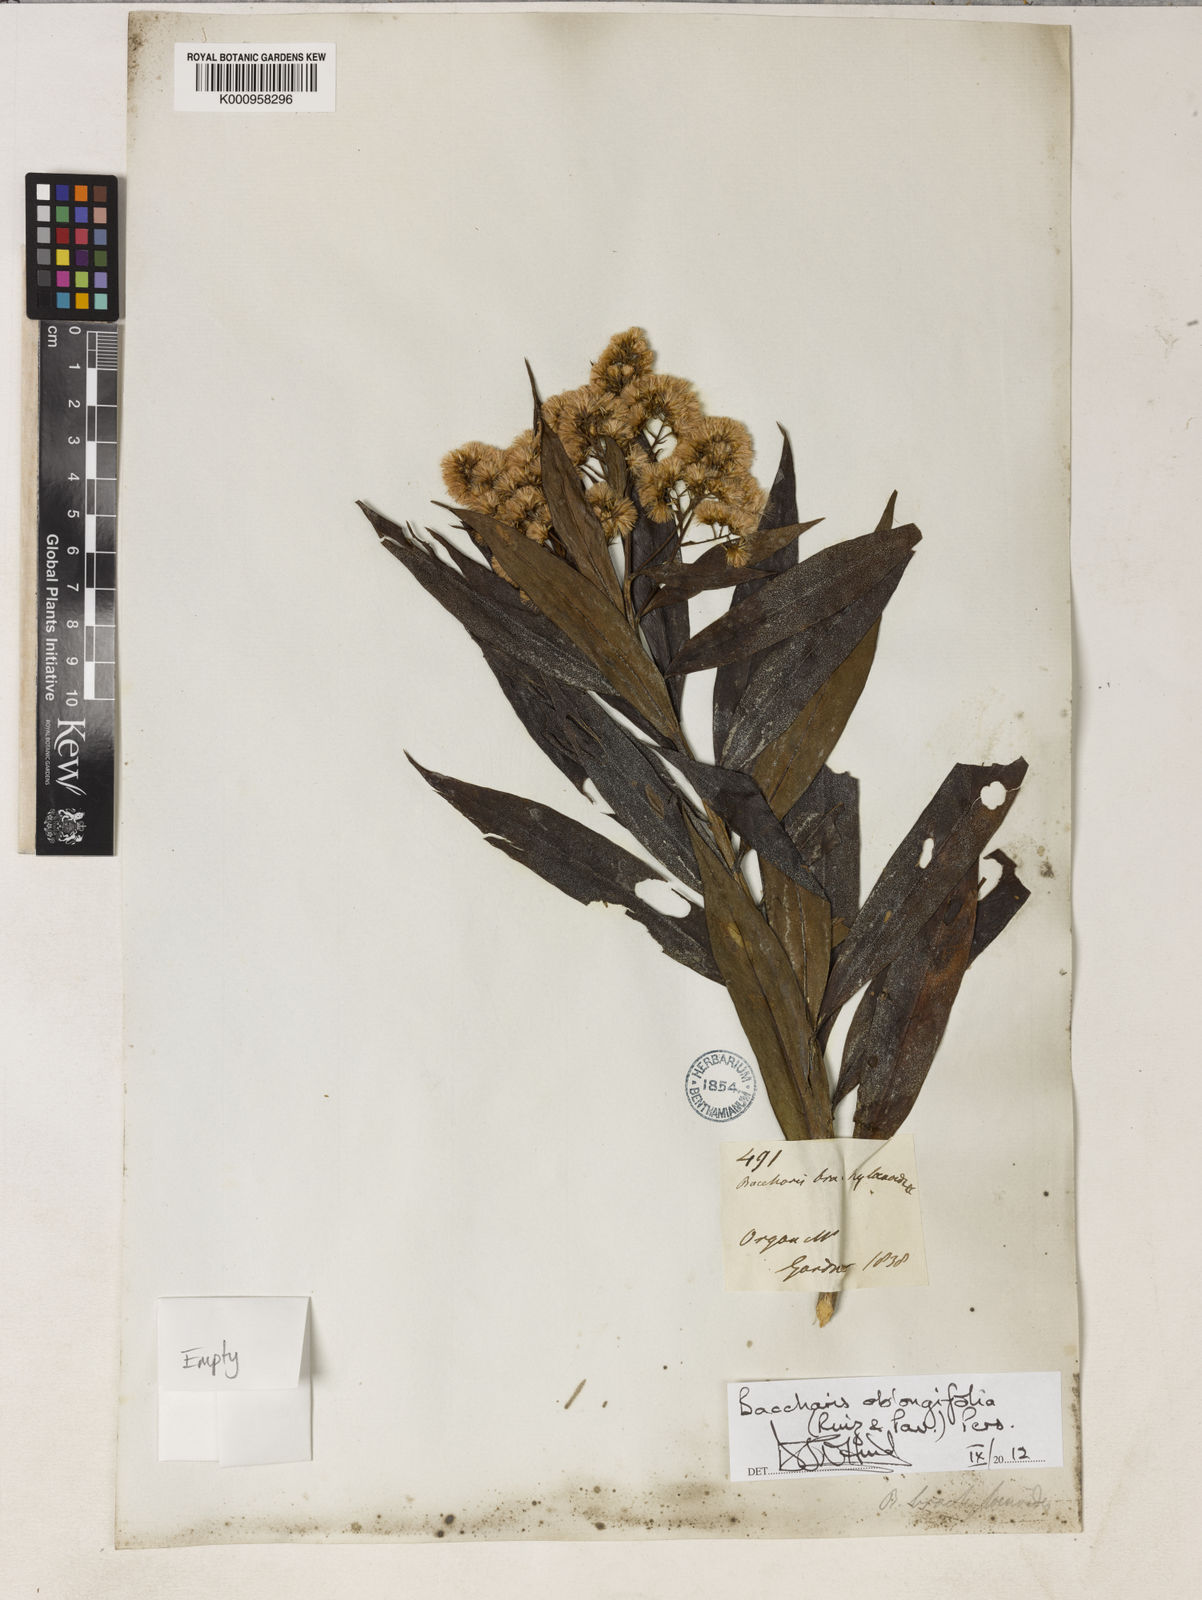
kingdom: Plantae
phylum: Tracheophyta
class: Magnoliopsida
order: Asterales
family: Asteraceae
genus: Baccharis
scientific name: Baccharis oblongifolia
